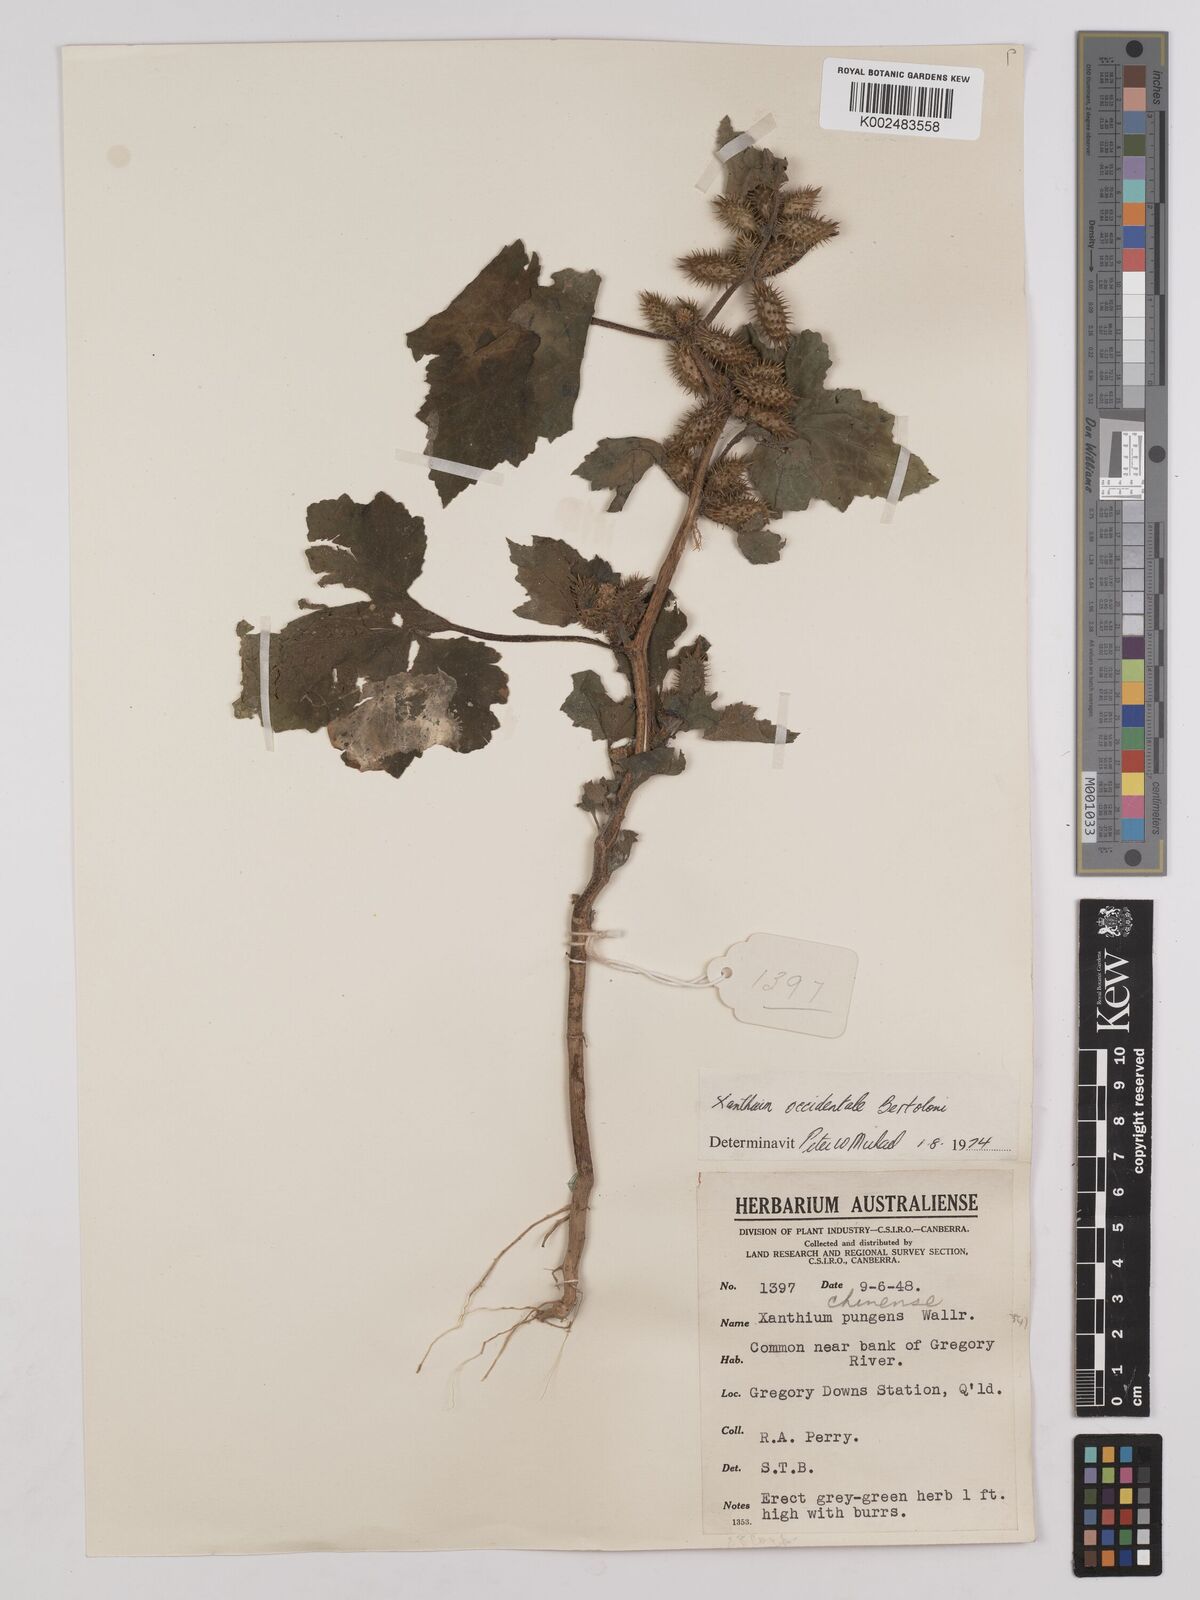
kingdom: Plantae
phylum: Tracheophyta
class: Magnoliopsida
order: Asterales
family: Asteraceae
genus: Xanthium
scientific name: Xanthium occidentale
